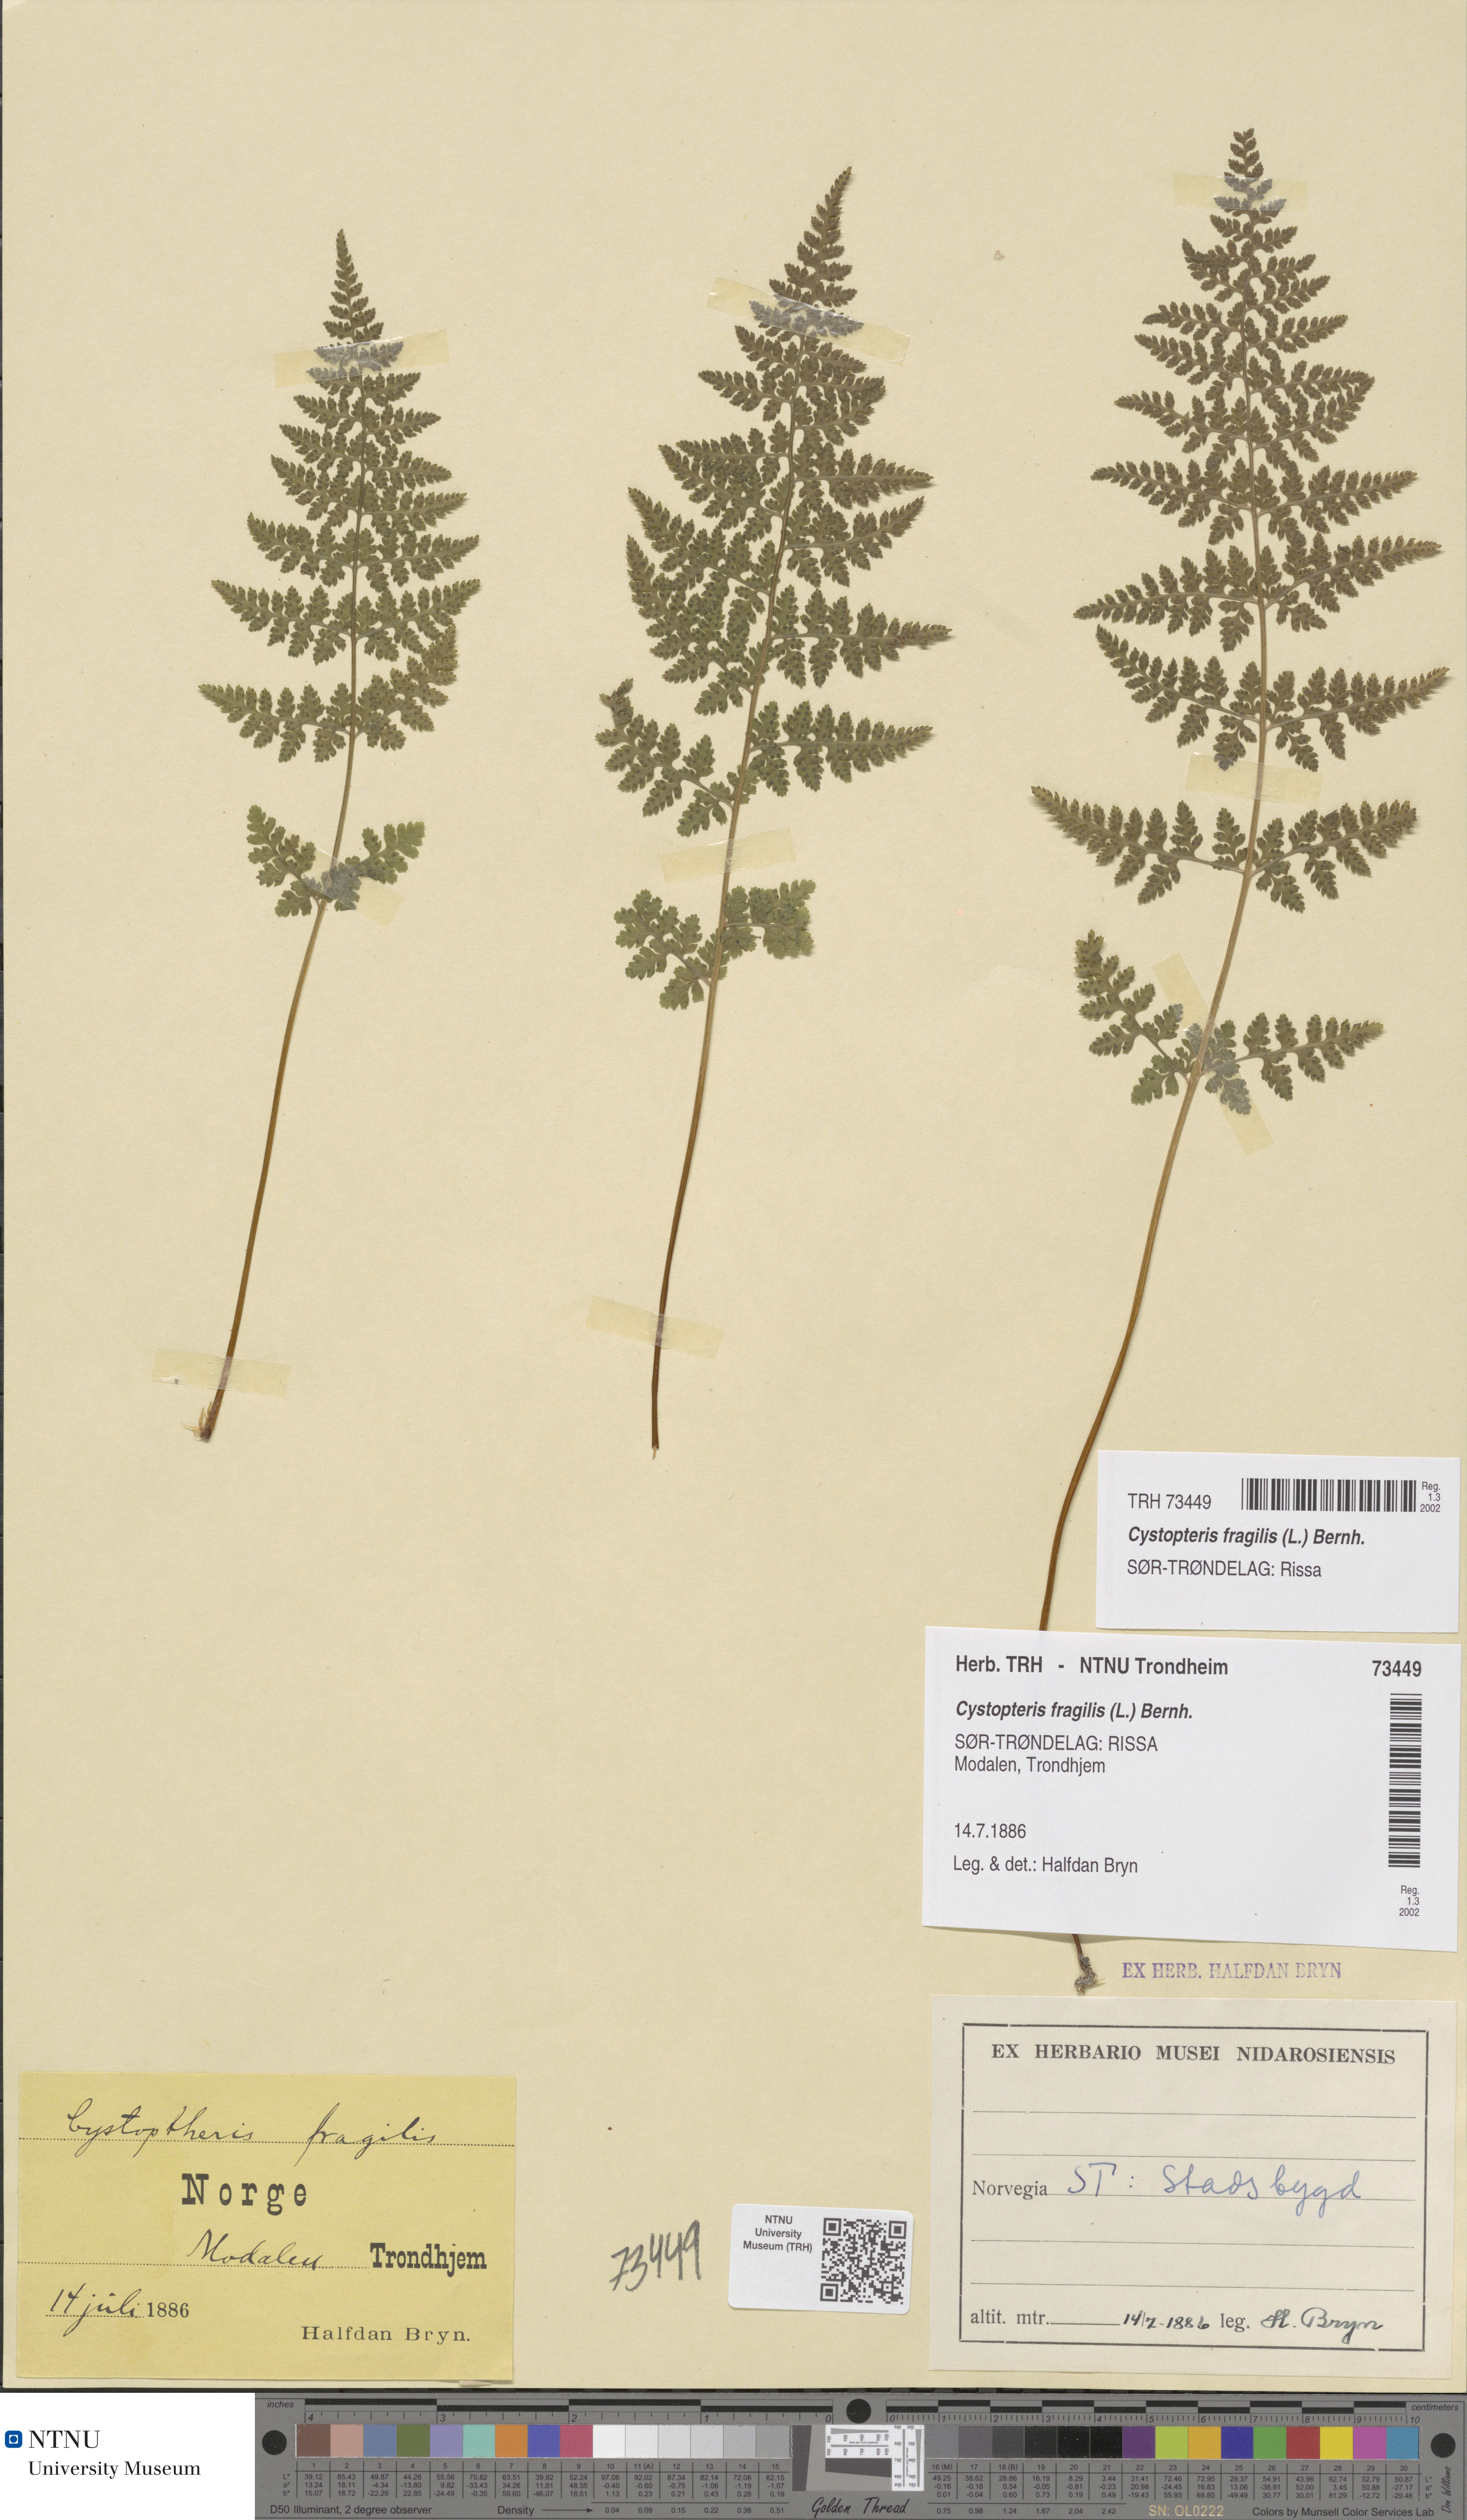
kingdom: Plantae
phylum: Tracheophyta
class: Polypodiopsida
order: Polypodiales
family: Cystopteridaceae
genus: Cystopteris
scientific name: Cystopteris fragilis
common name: Brittle bladder fern
